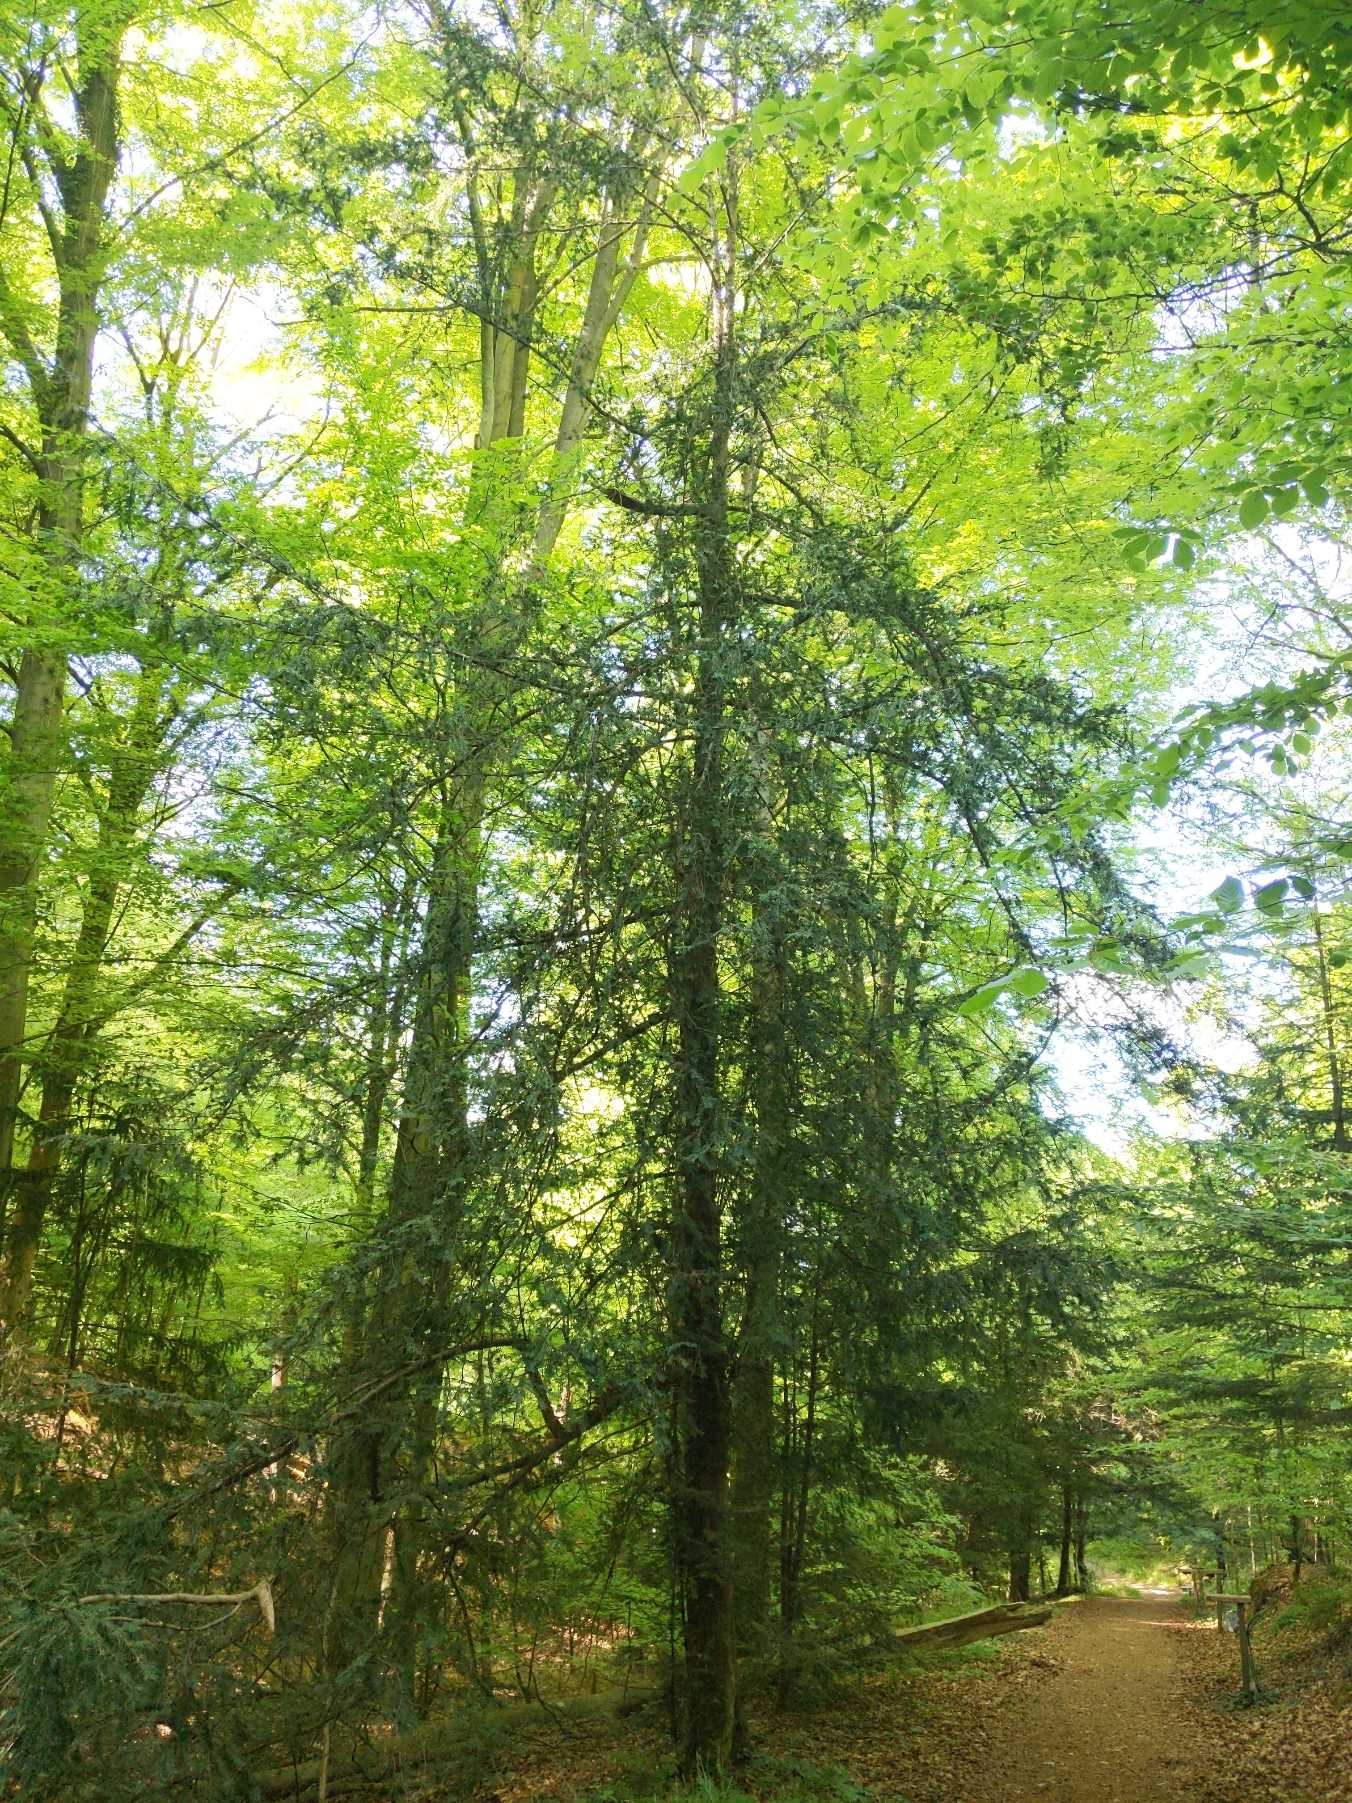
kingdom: Plantae
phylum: Tracheophyta
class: Pinopsida
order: Pinales
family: Taxaceae
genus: Taxus
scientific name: Taxus baccata
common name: Almindelig taks
